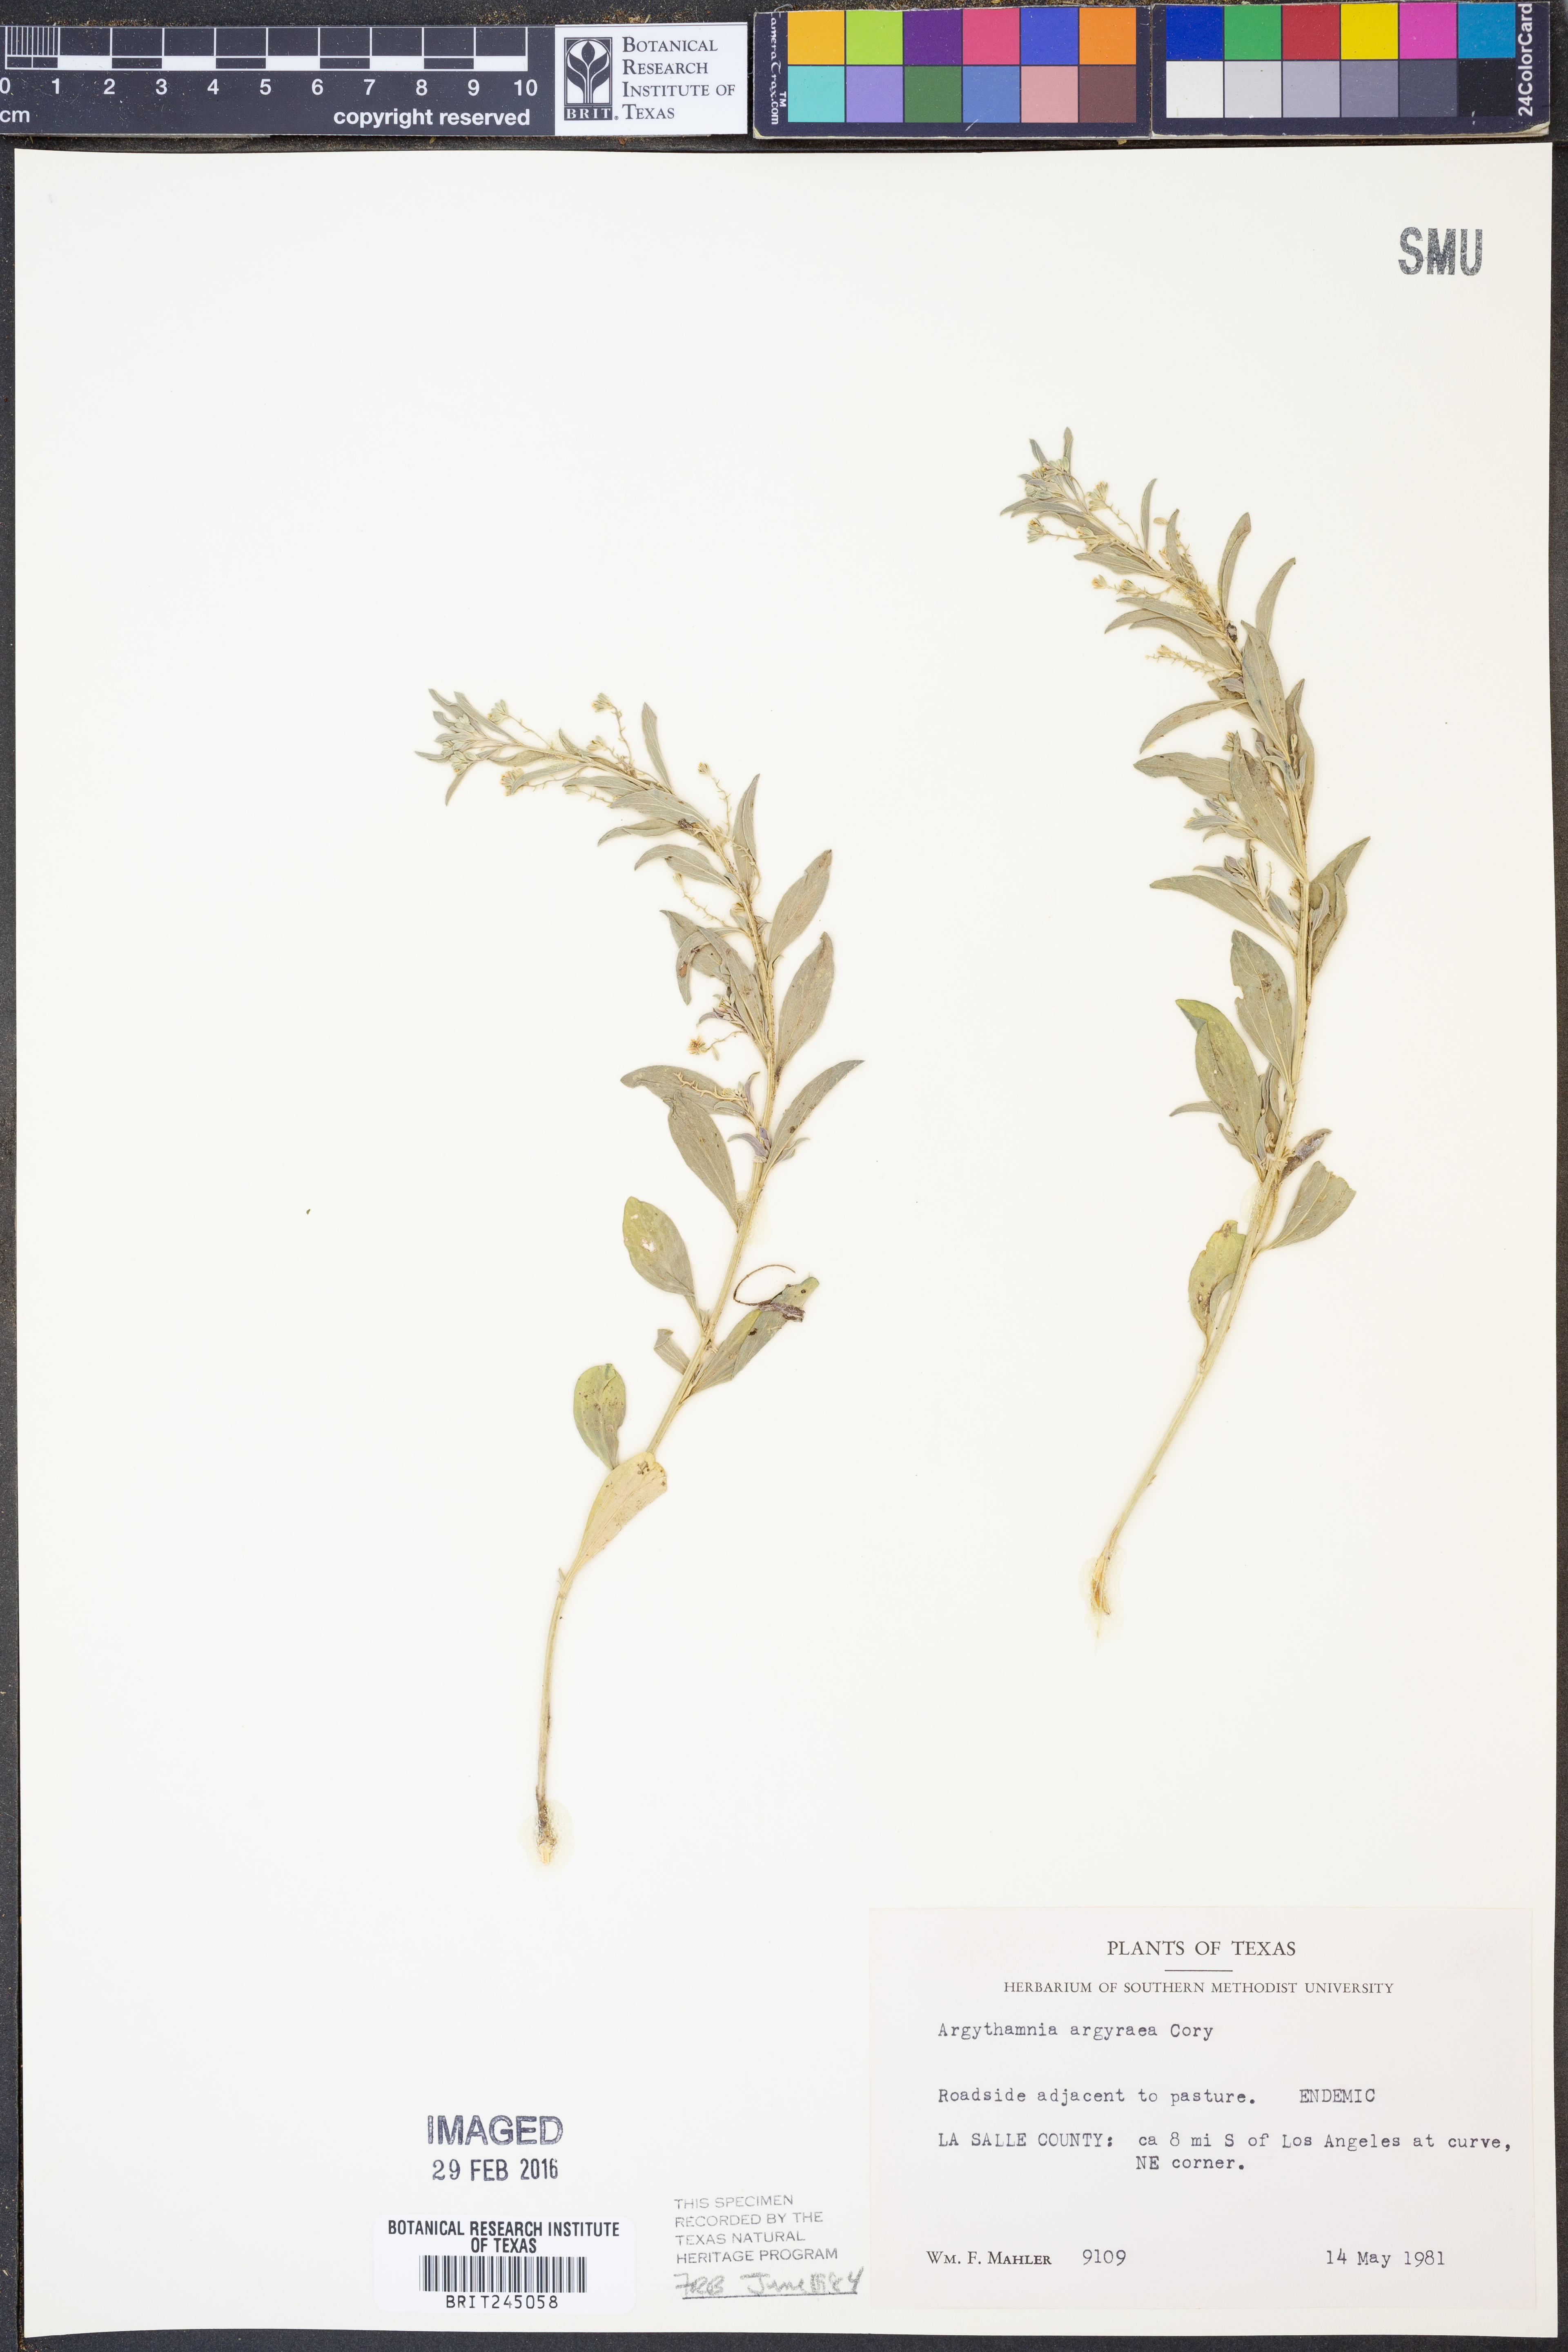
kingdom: Plantae
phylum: Tracheophyta
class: Magnoliopsida
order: Malpighiales
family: Euphorbiaceae
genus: Argythamnia
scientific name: Argythamnia argyraea
